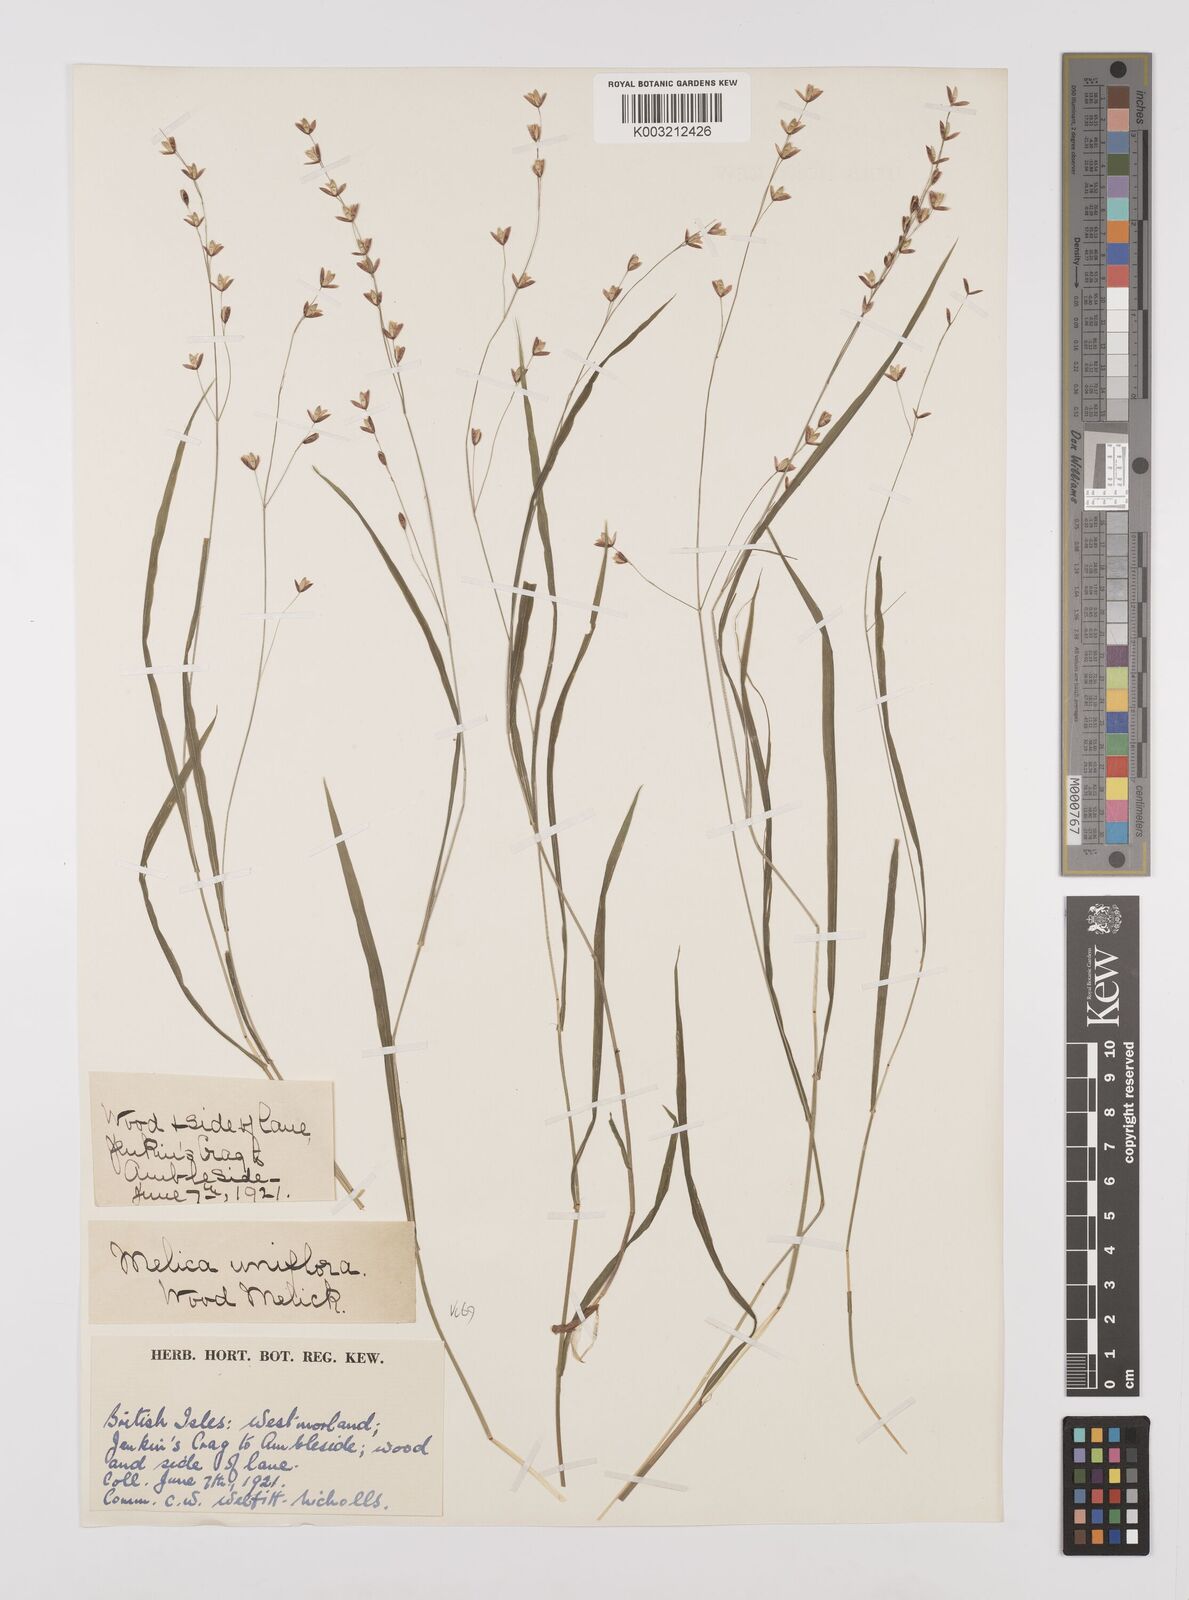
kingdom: Plantae
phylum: Tracheophyta
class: Liliopsida
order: Poales
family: Poaceae
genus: Melica
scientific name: Melica uniflora
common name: Wood melick
